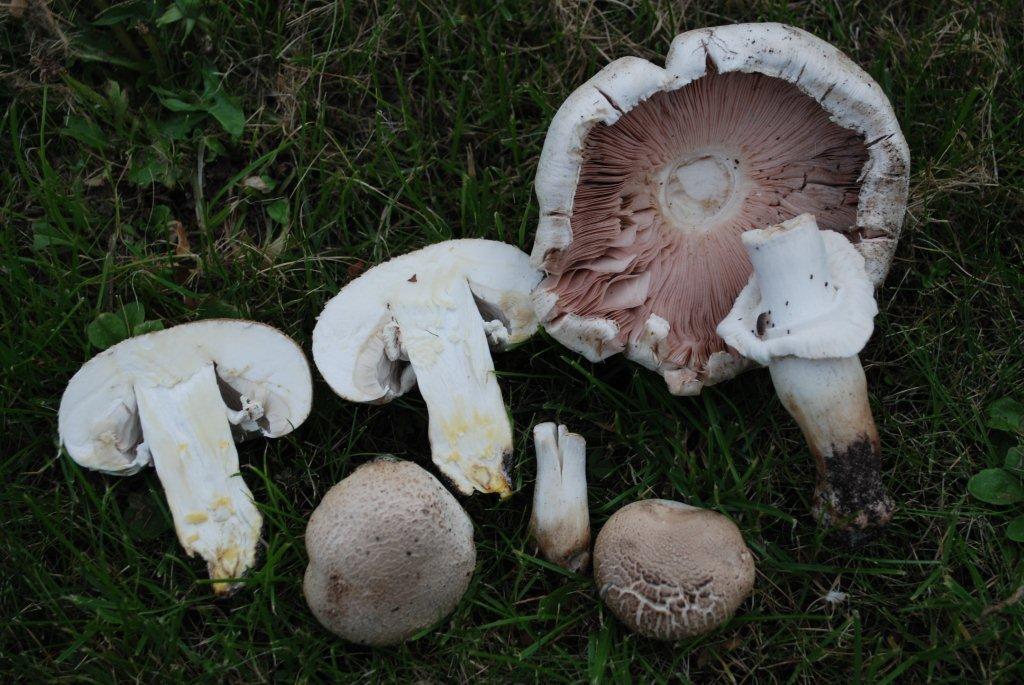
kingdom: Fungi
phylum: Basidiomycota
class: Agaricomycetes
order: Agaricales
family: Agaricaceae
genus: Agaricus
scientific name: Agaricus xanthodermus
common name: karbol-champignon
